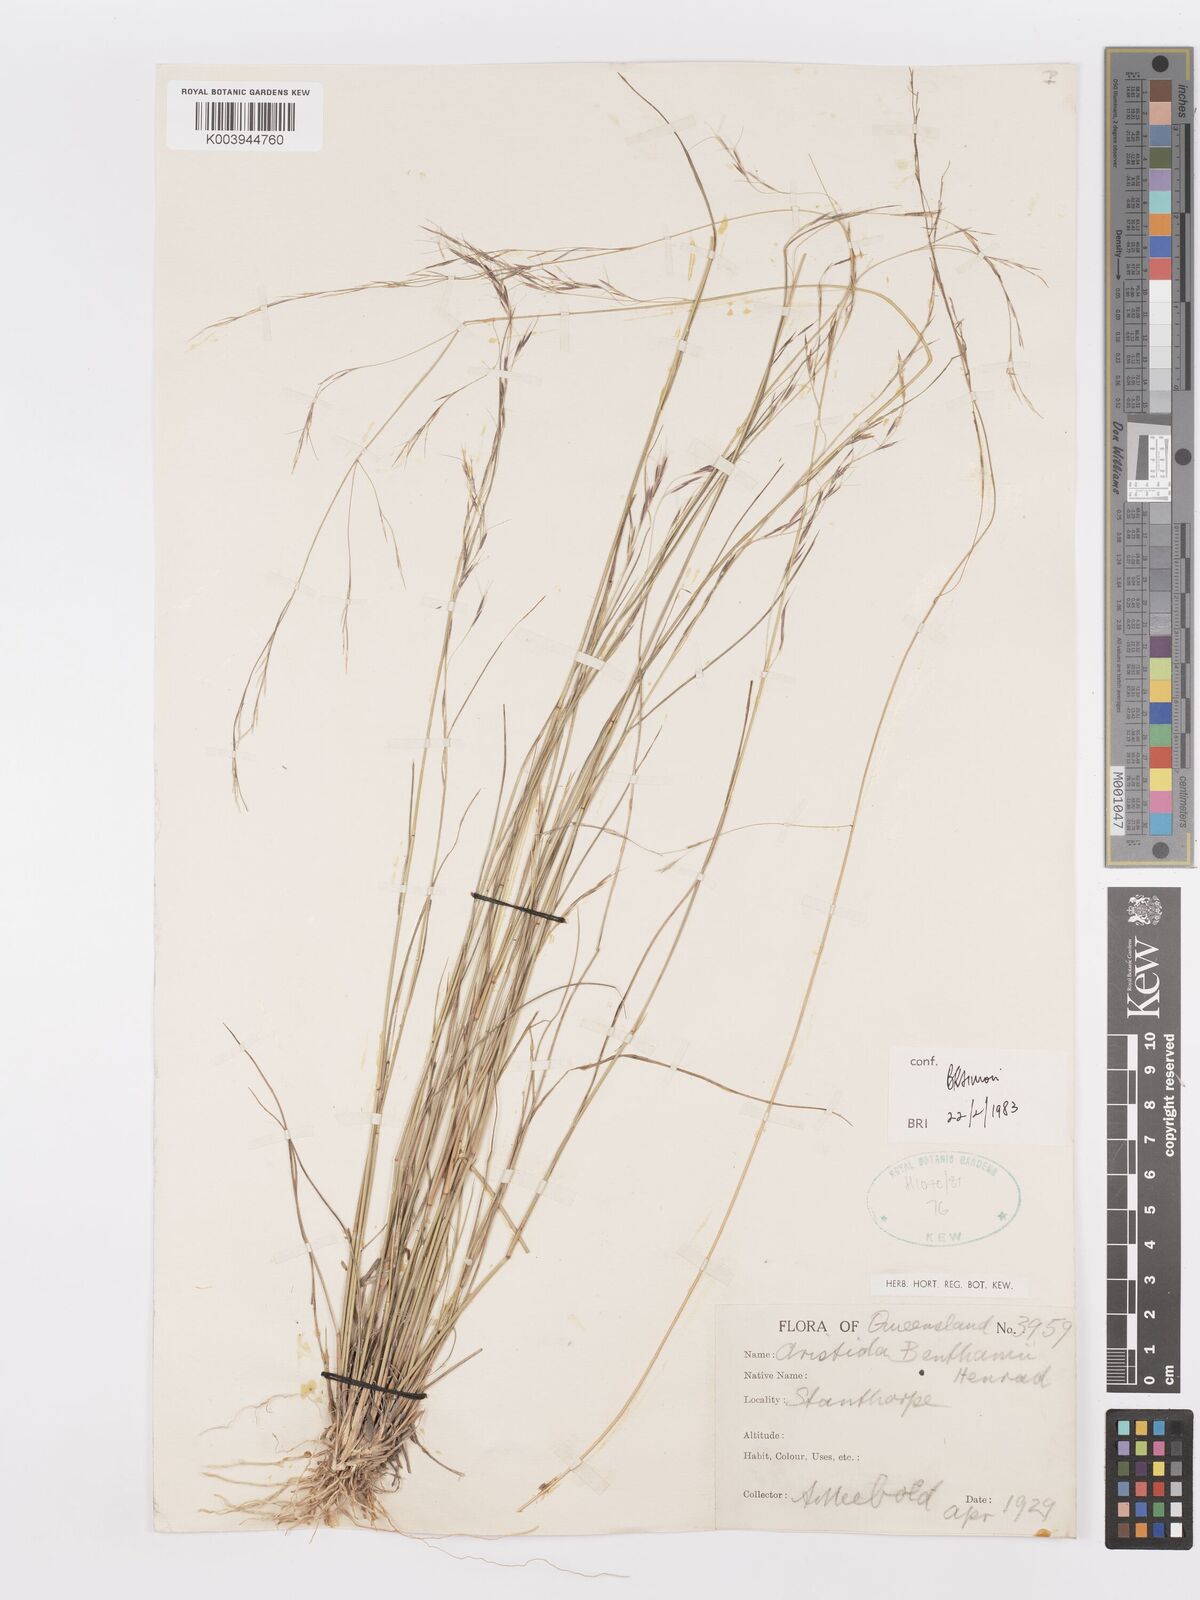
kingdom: Plantae
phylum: Tracheophyta
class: Liliopsida
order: Poales
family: Poaceae
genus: Aristida
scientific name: Aristida benthamii
